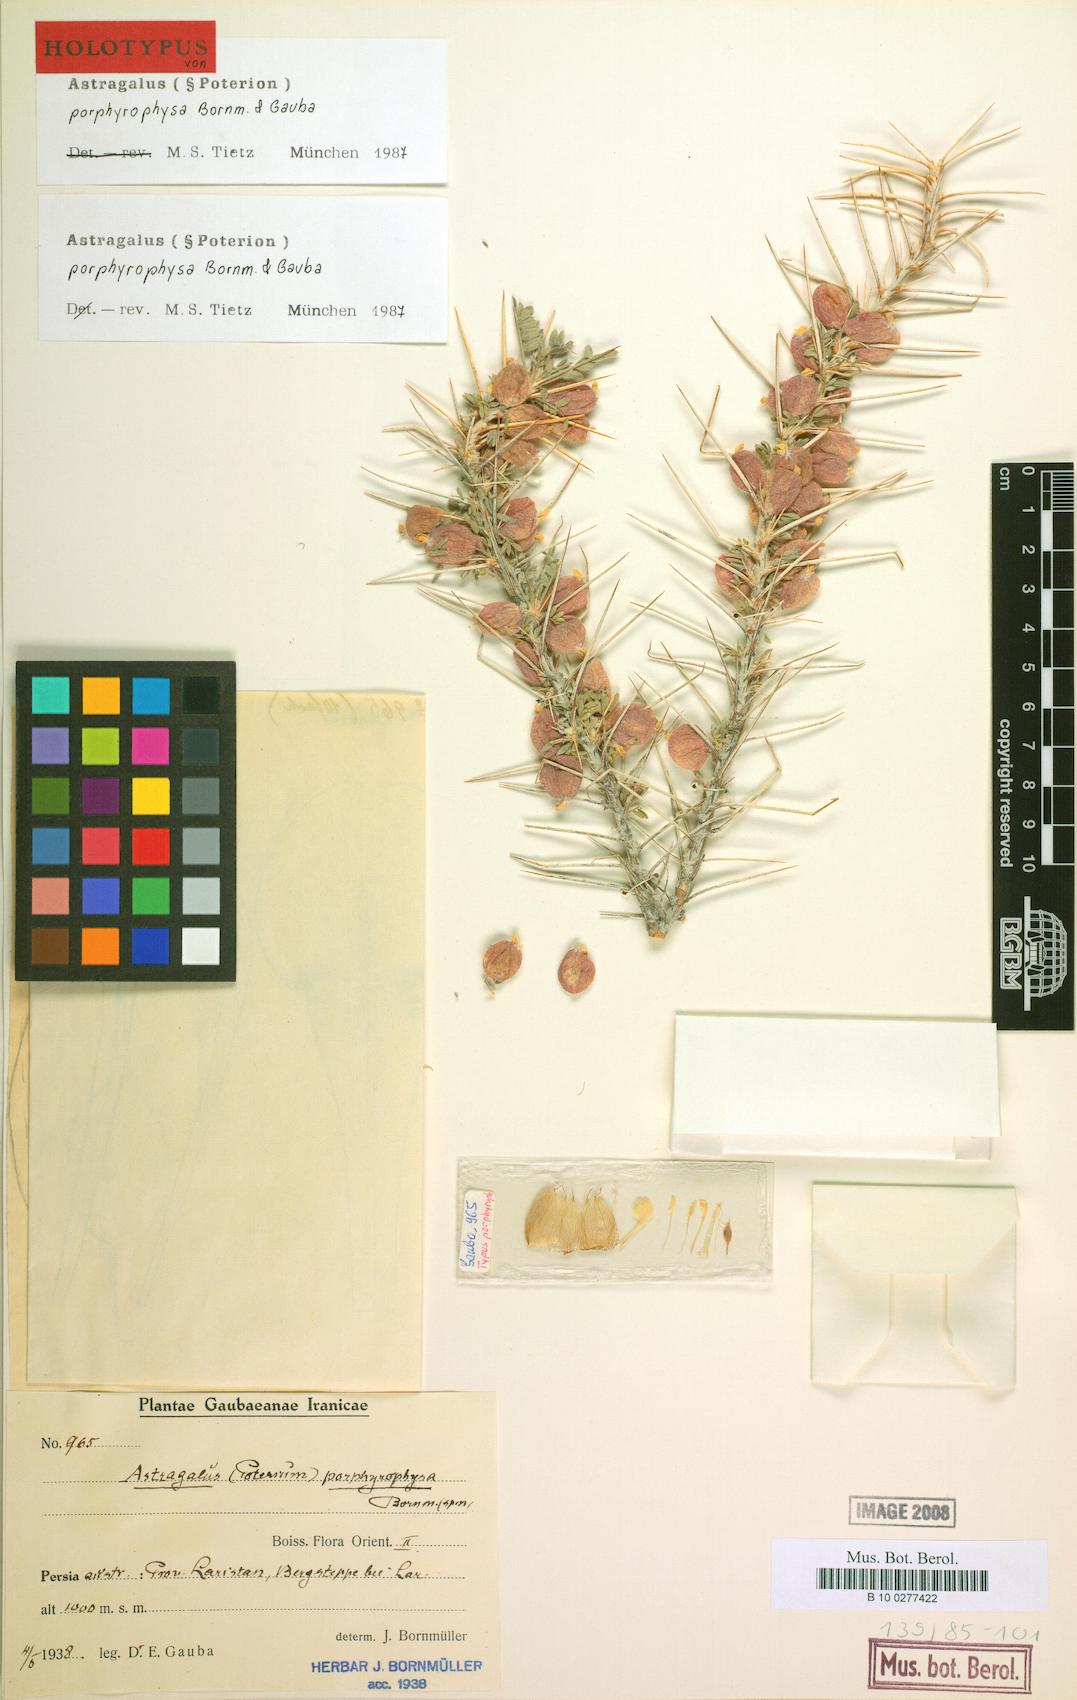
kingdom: Plantae
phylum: Tracheophyta
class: Magnoliopsida
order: Fabales
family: Fabaceae
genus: Astragalus
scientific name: Astragalus porphyrophysa
